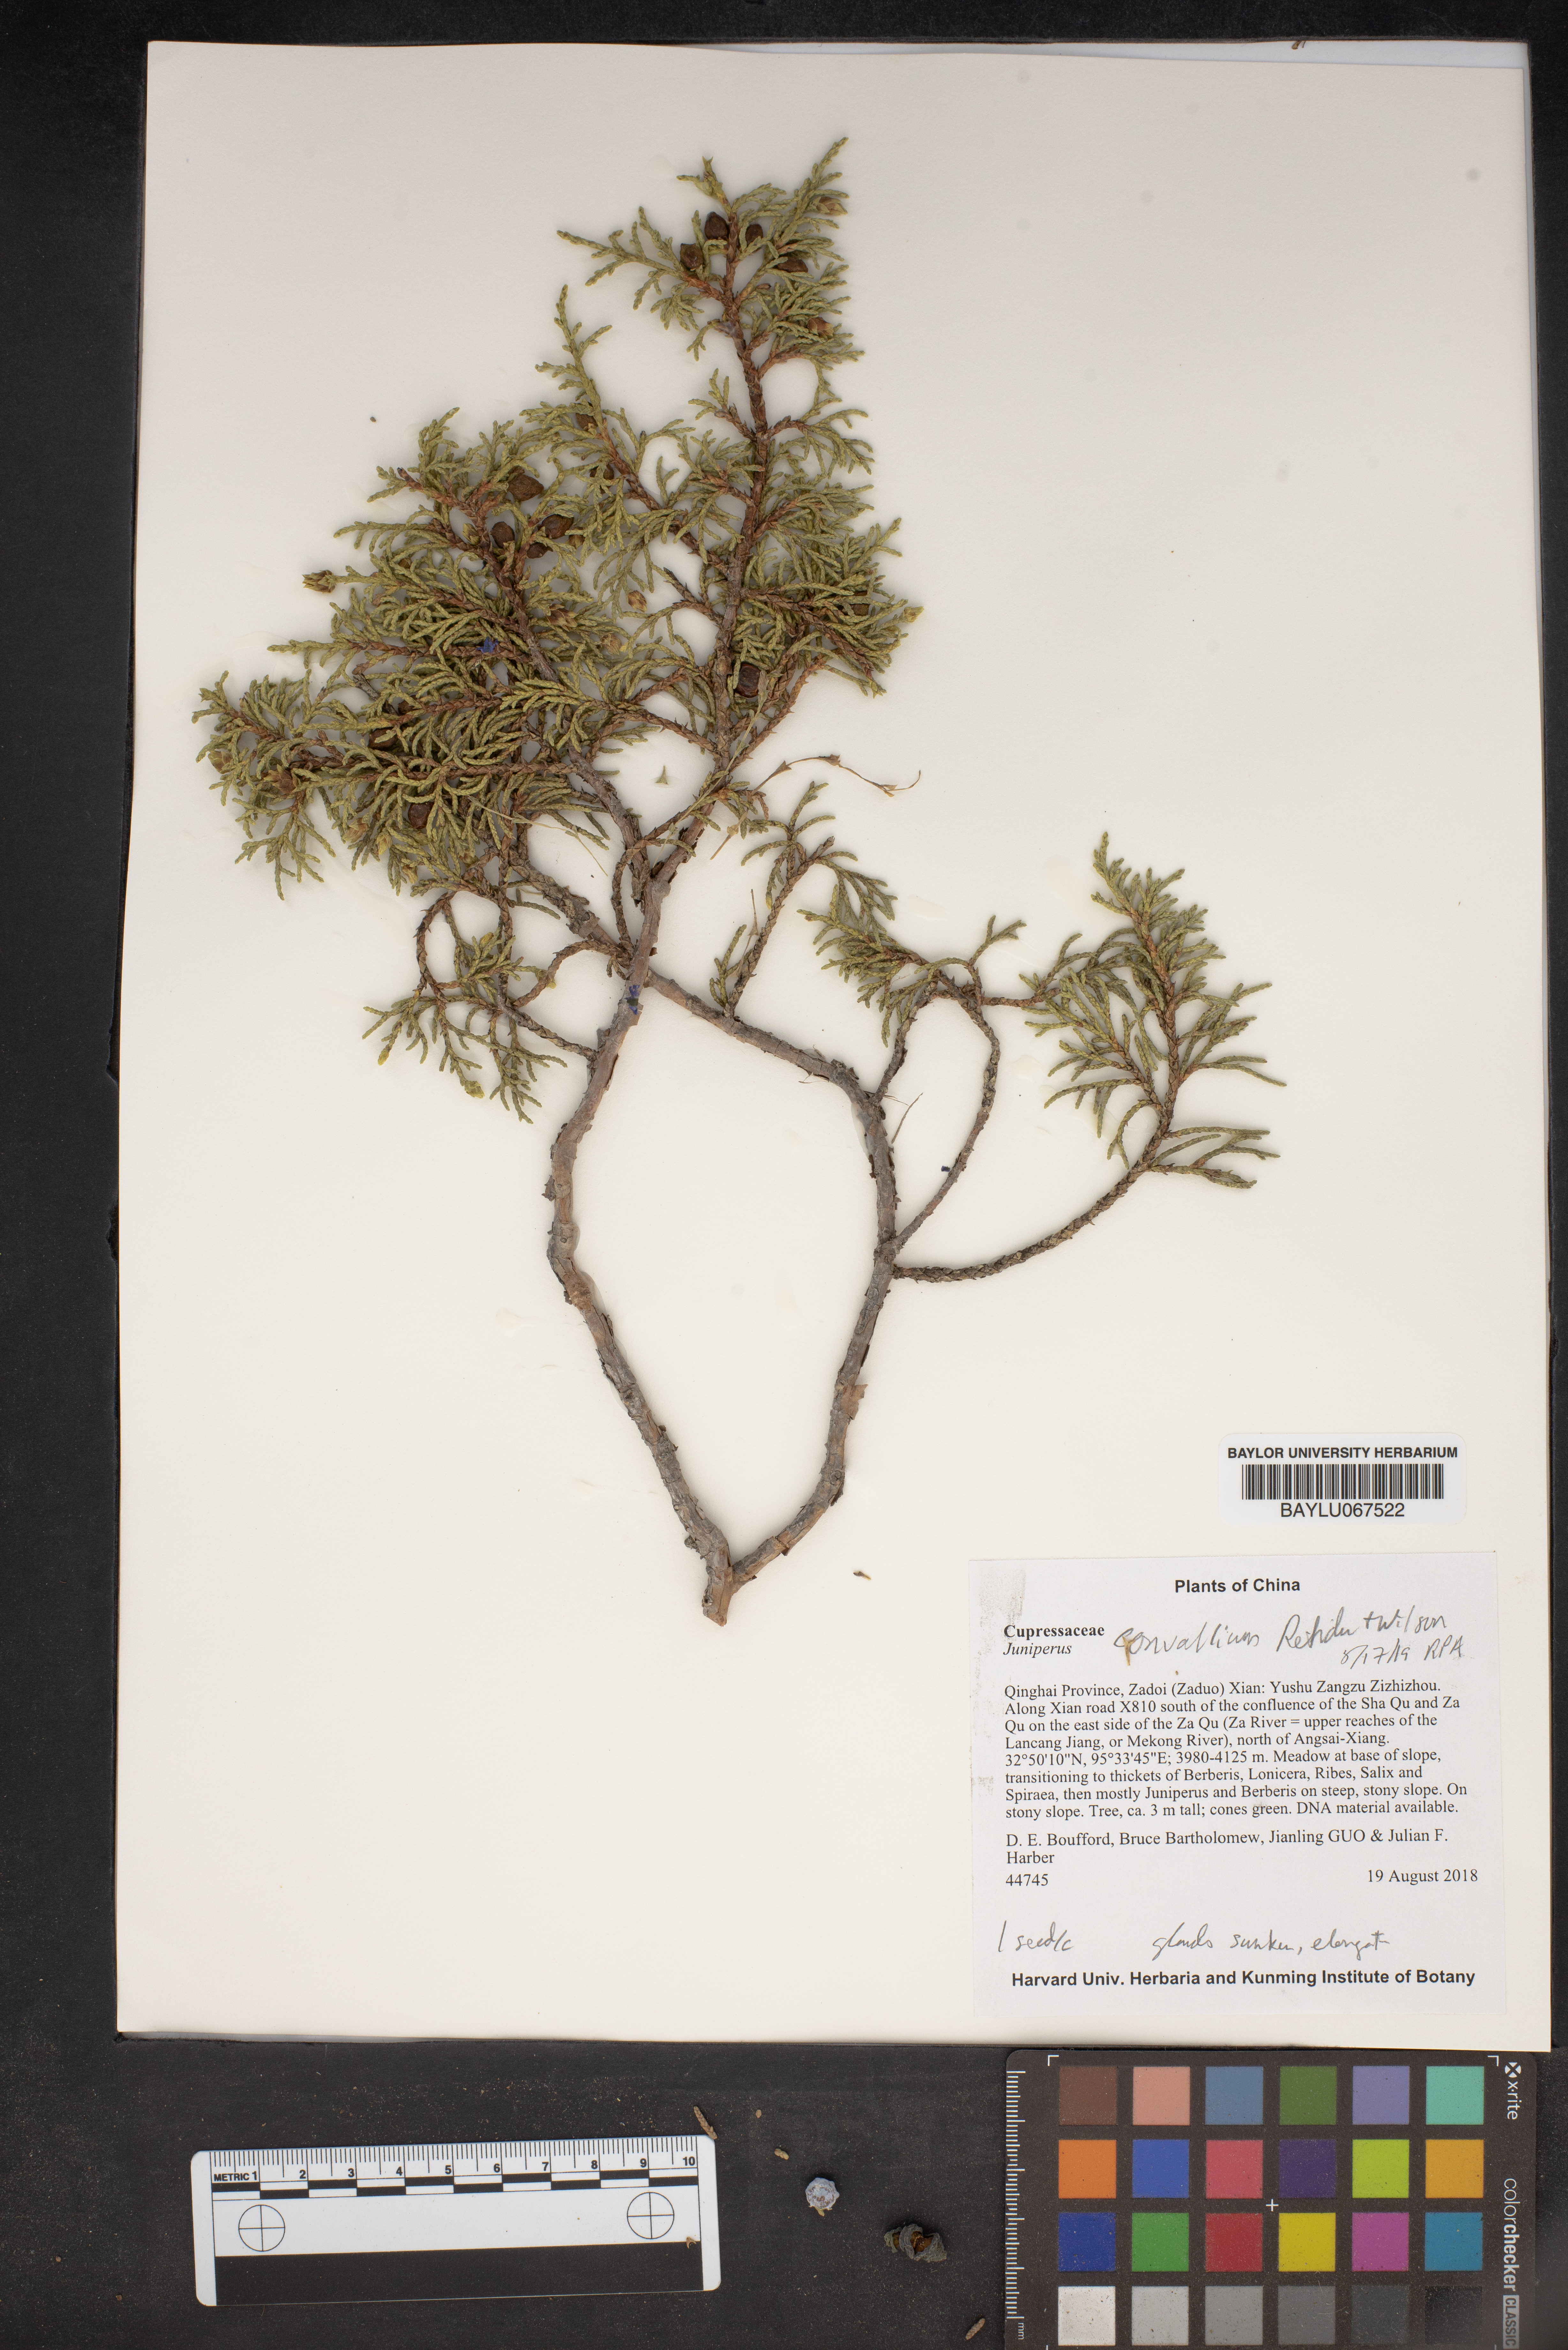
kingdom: Plantae
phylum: Tracheophyta
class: Pinopsida
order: Pinales
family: Cupressaceae
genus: Juniperus
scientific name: Juniperus convallium
